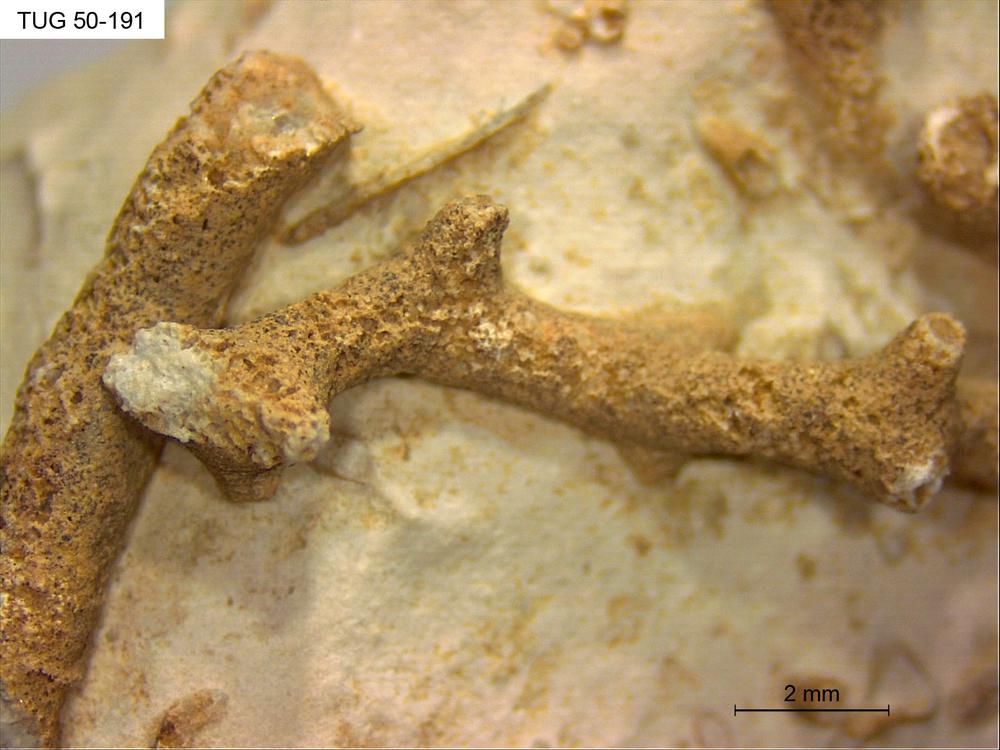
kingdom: Animalia
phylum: Bryozoa
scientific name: Bryozoa
